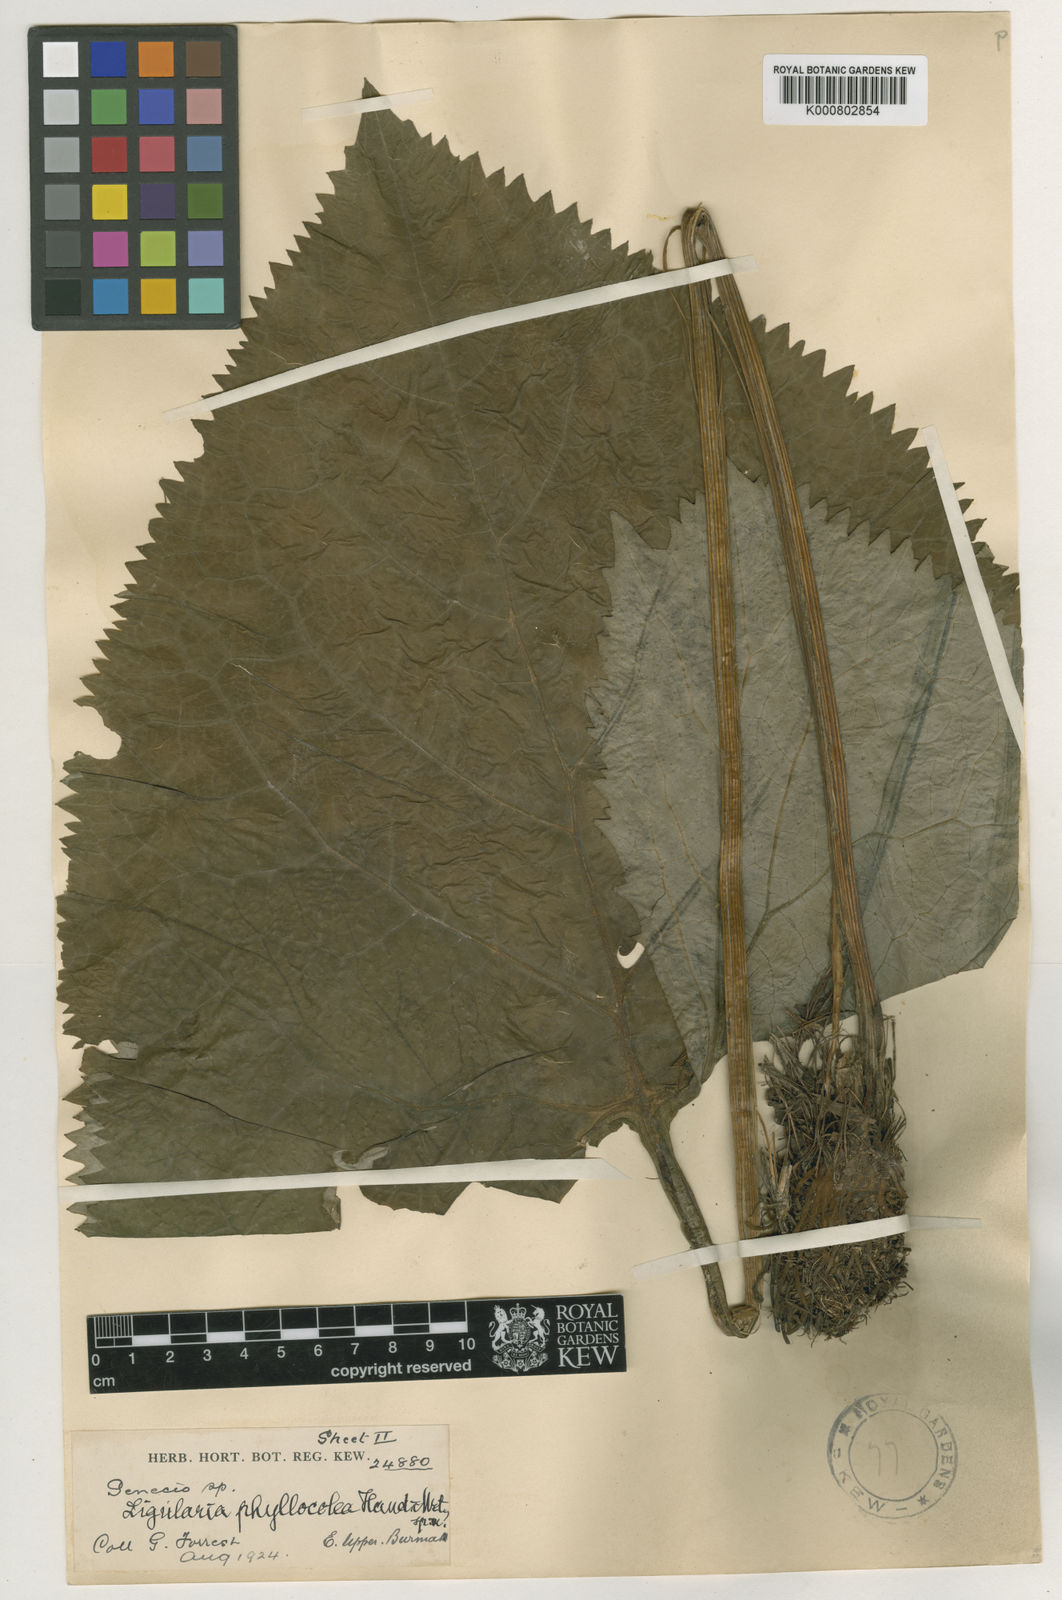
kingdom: Plantae
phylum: Tracheophyta
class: Magnoliopsida
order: Asterales
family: Asteraceae
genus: Ligularia
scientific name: Ligularia phyllocolea
